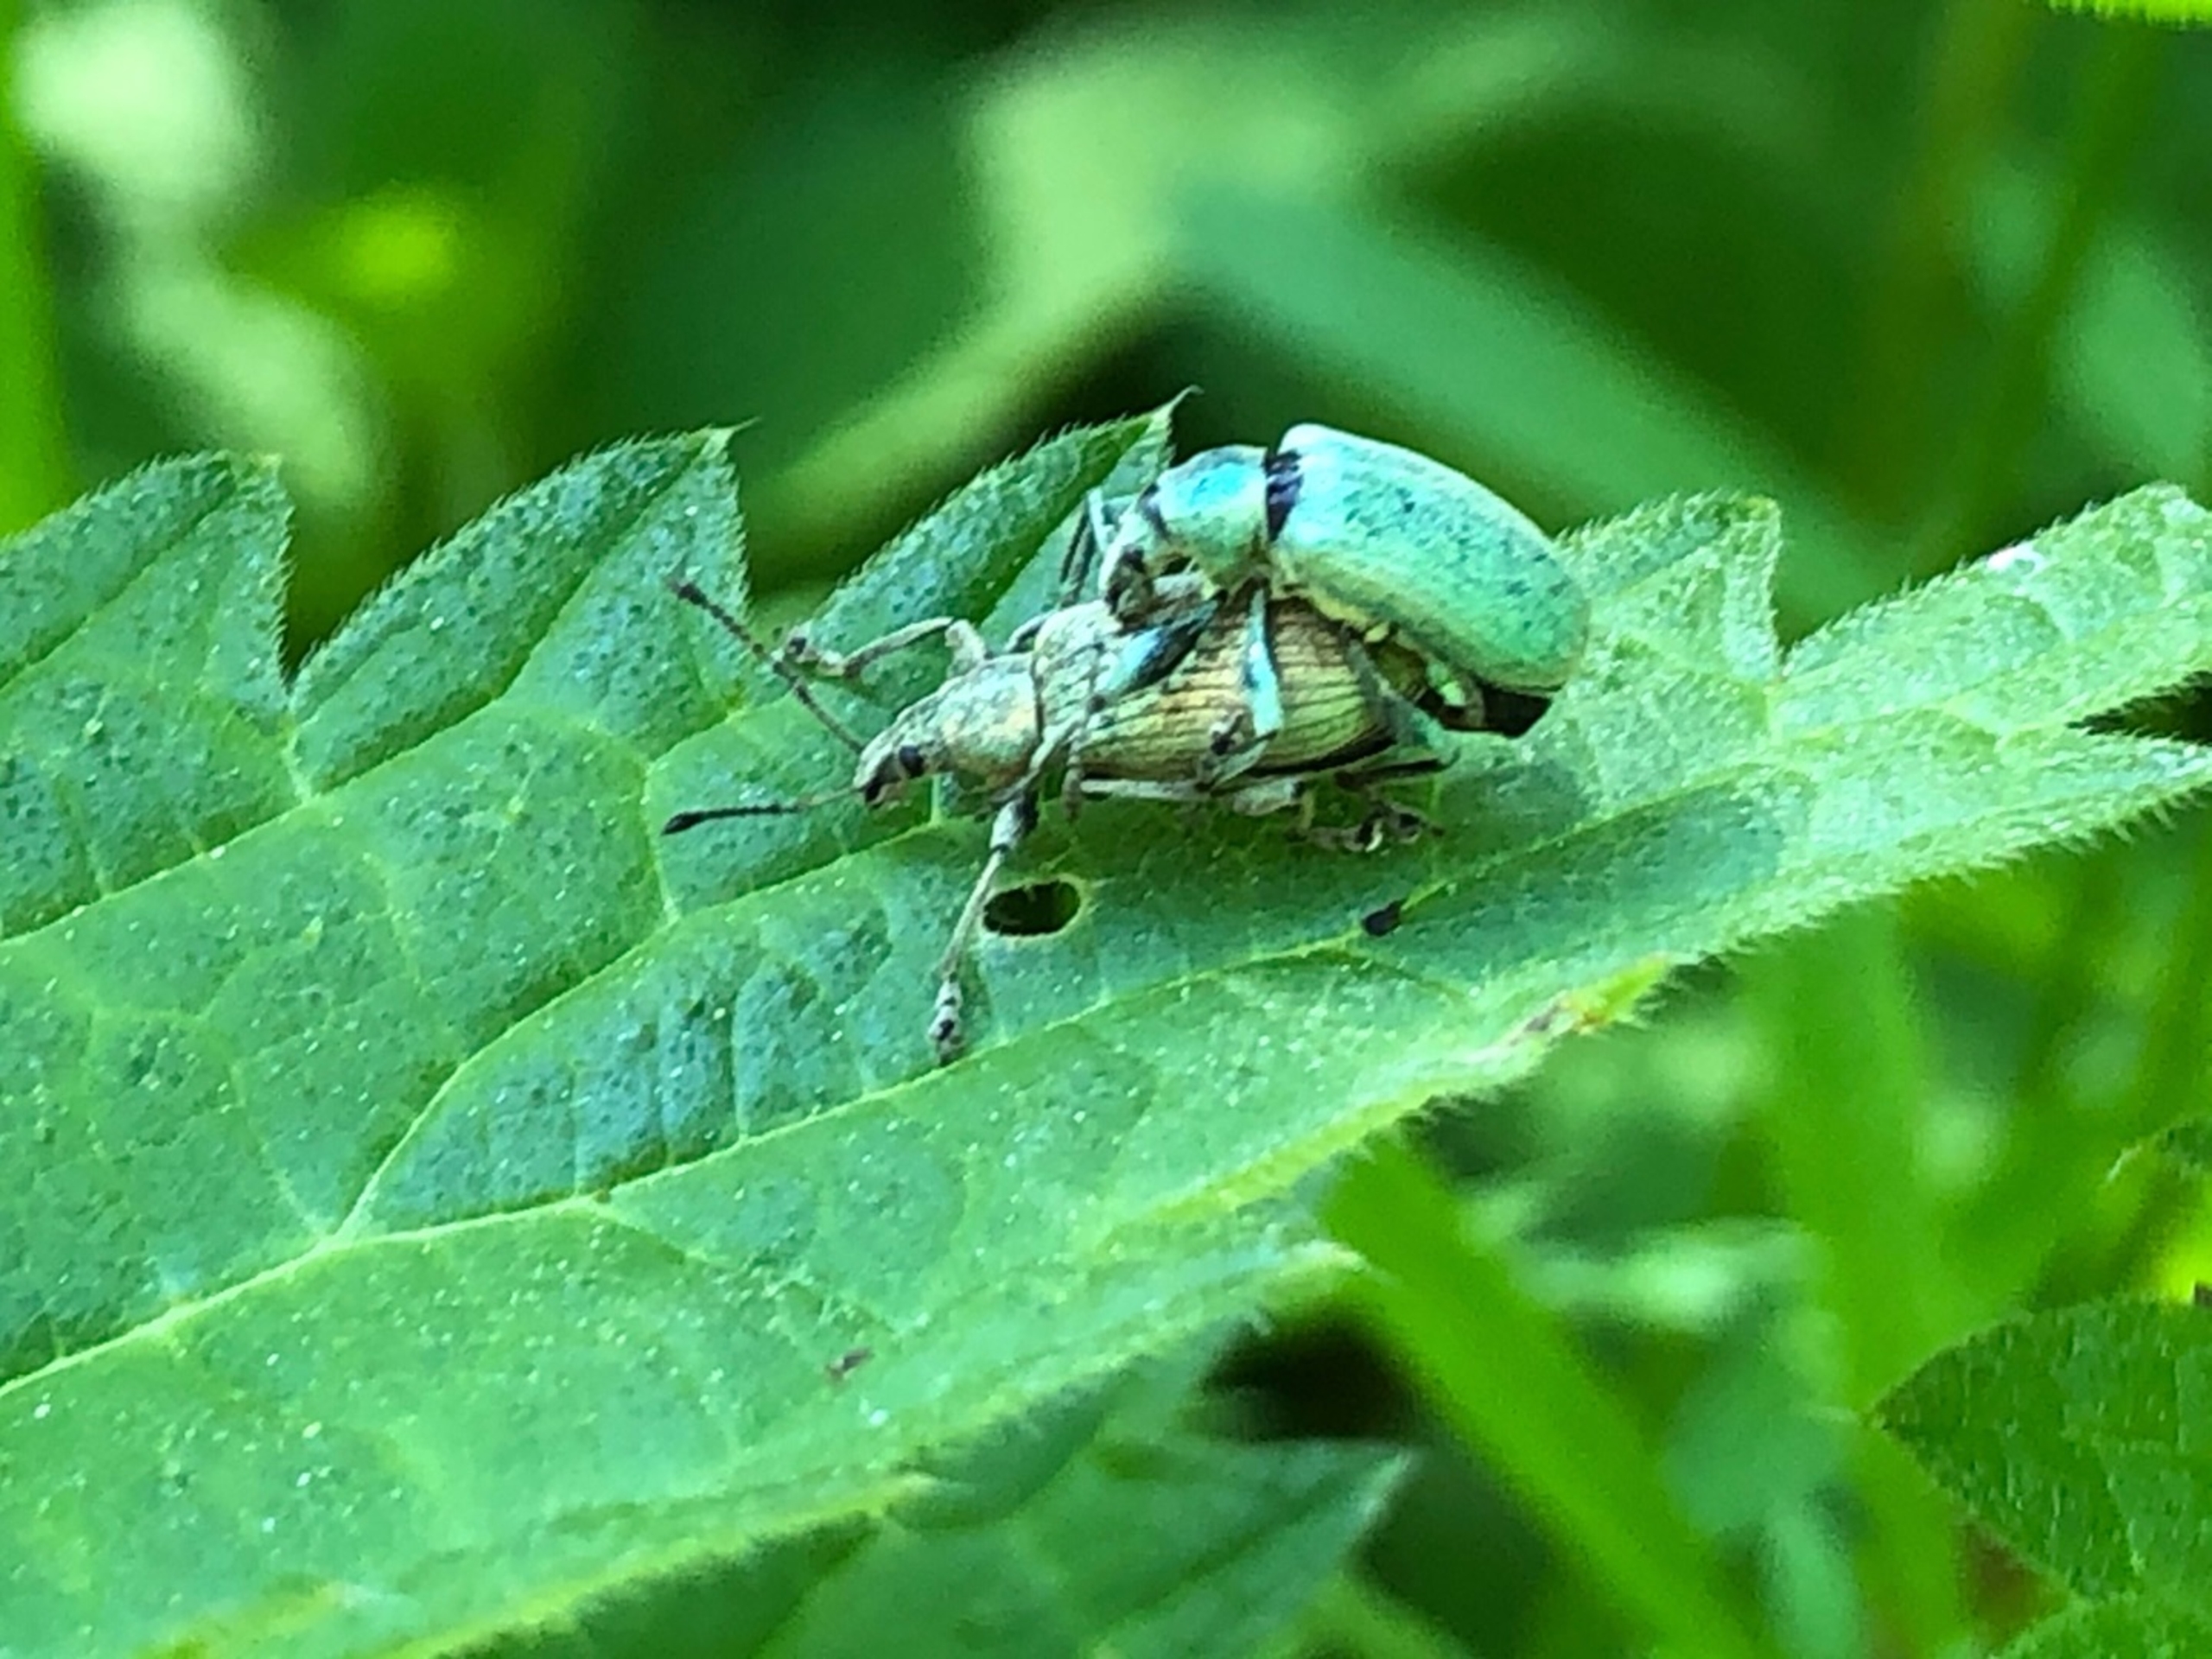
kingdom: Animalia
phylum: Arthropoda
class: Insecta
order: Coleoptera
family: Curculionidae
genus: Phyllobius
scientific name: Phyllobius pomaceus
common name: Nældesnudebille
